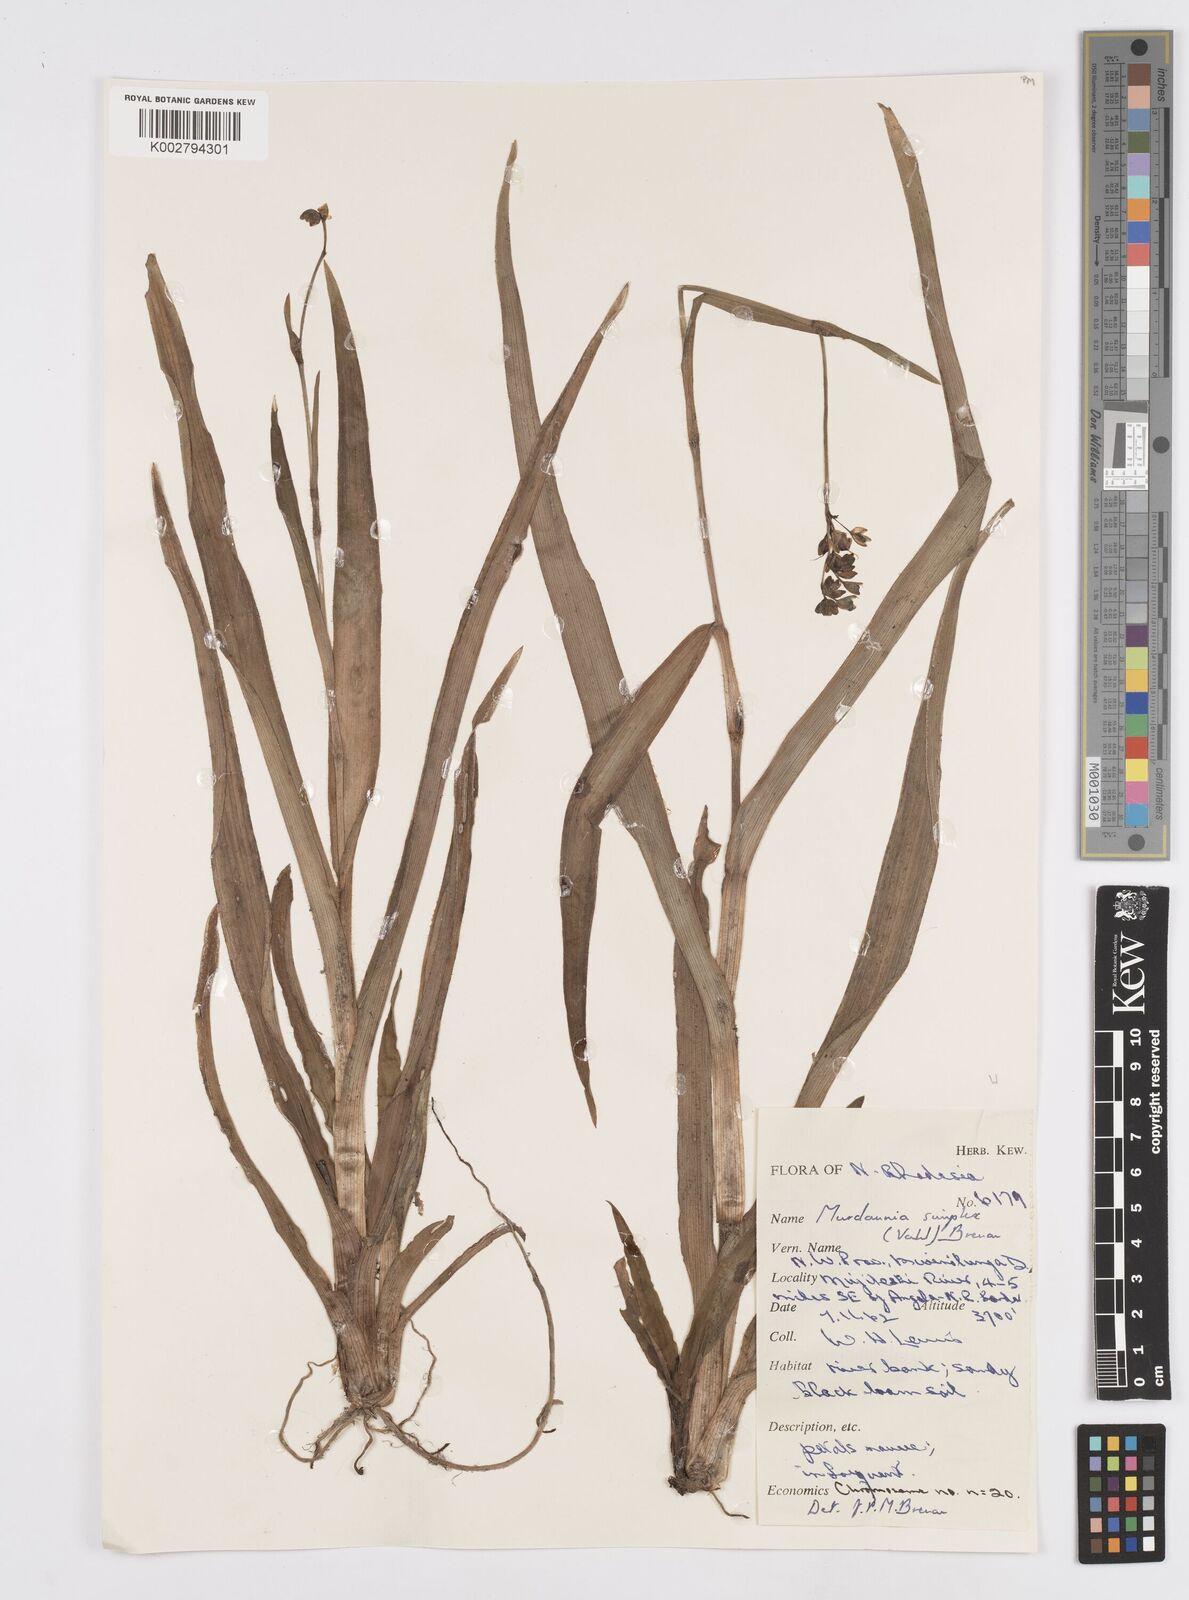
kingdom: Plantae
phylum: Tracheophyta
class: Liliopsida
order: Commelinales
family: Commelinaceae
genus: Murdannia
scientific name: Murdannia simplex
